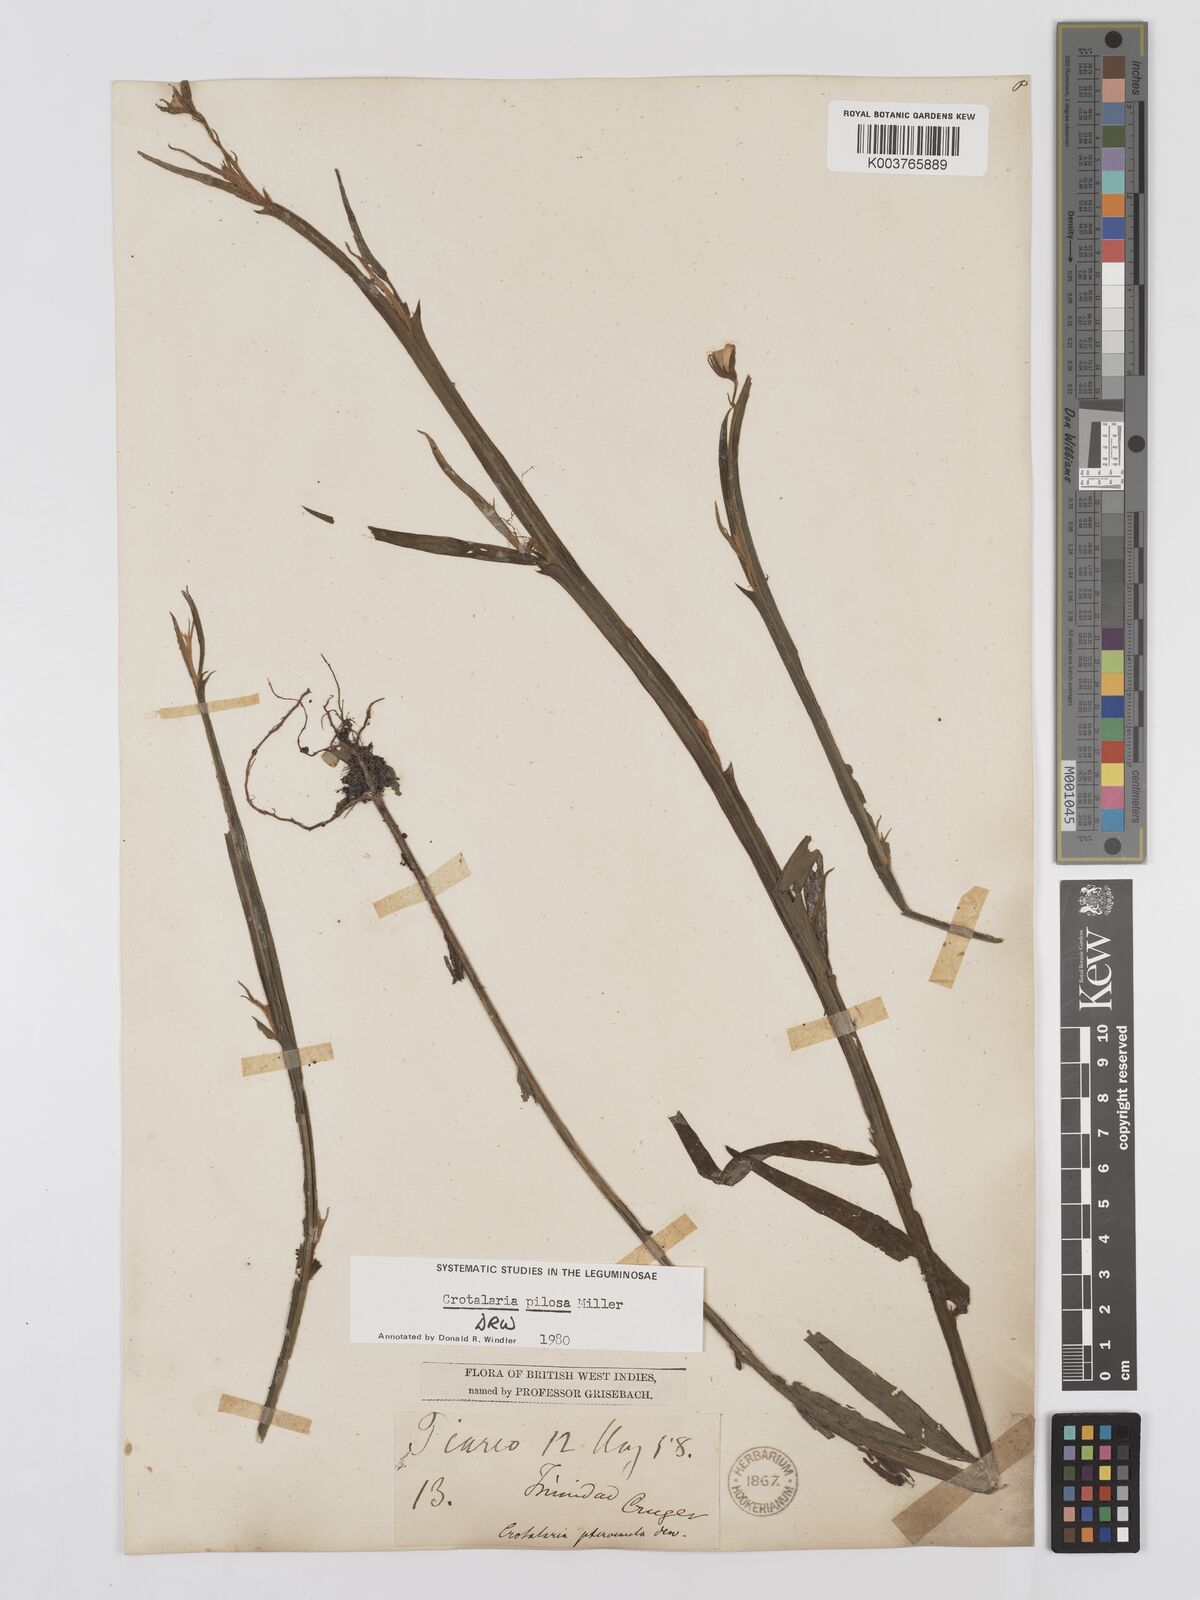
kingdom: Plantae
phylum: Tracheophyta
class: Magnoliopsida
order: Fabales
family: Fabaceae
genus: Crotalaria
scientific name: Crotalaria pilosa
